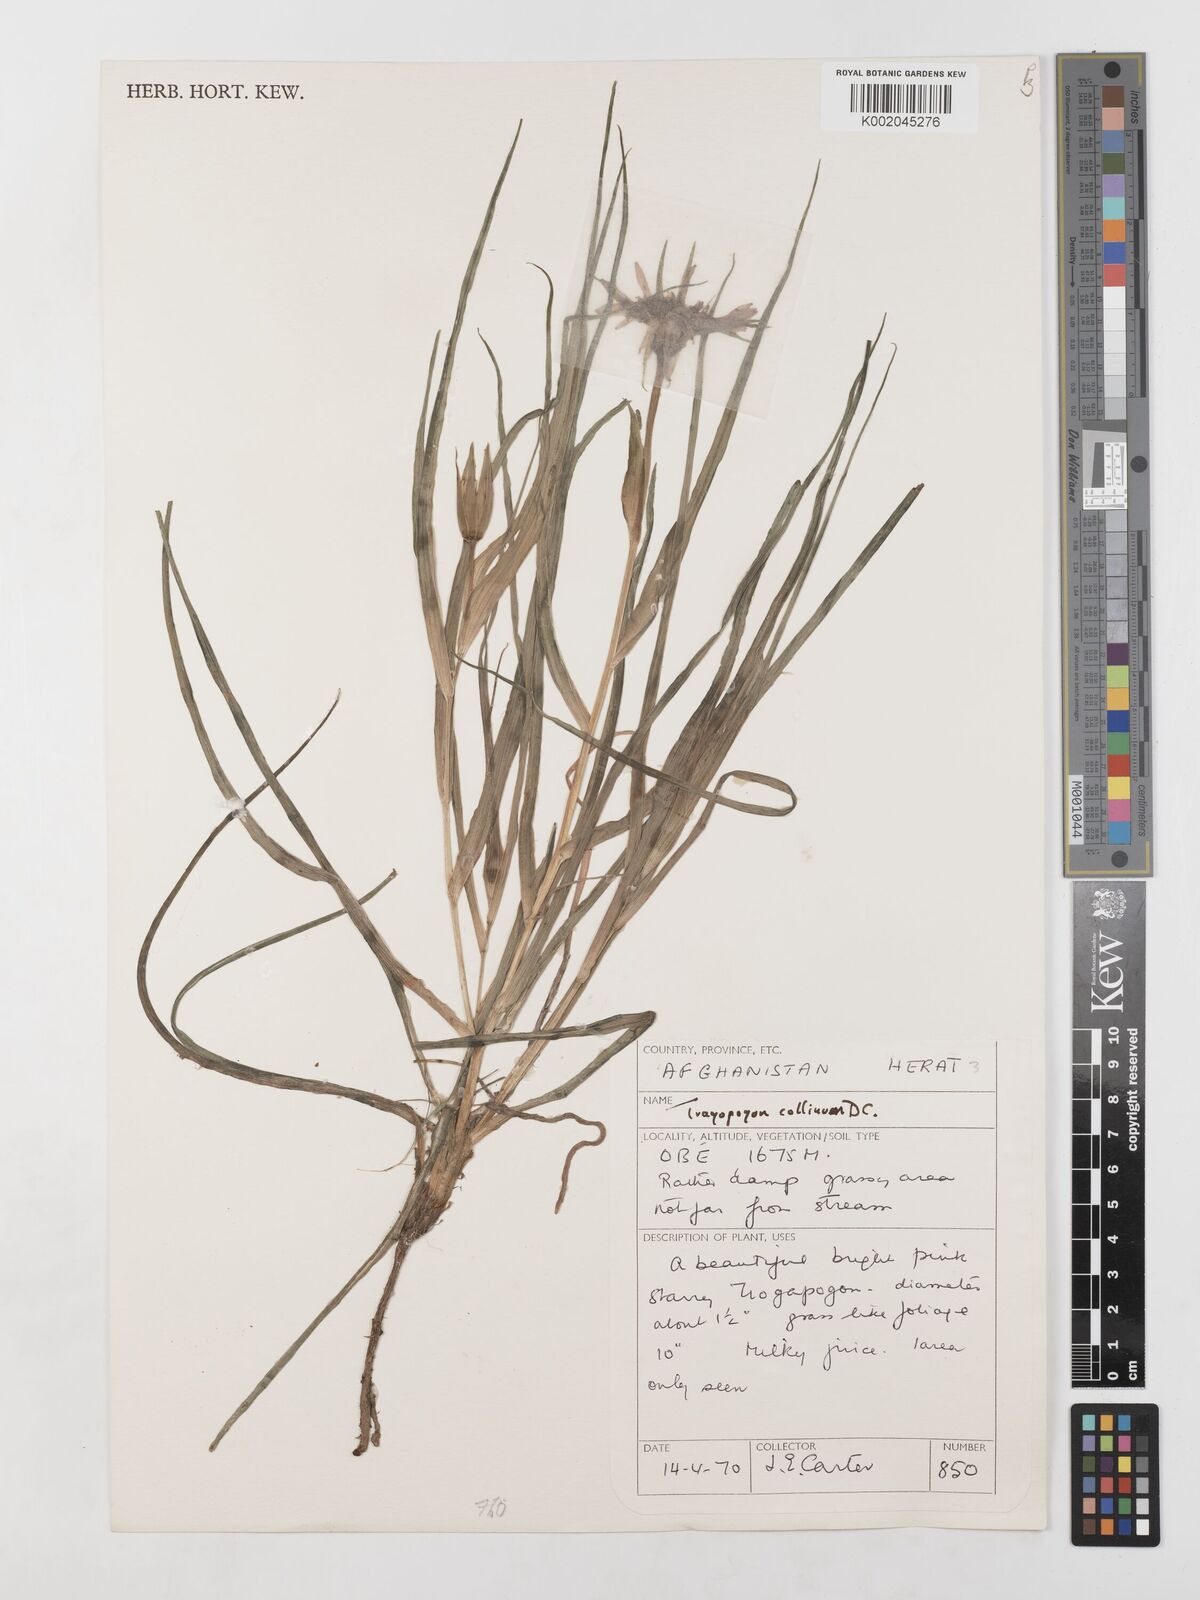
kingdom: Plantae
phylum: Tracheophyta
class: Magnoliopsida
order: Asterales
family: Asteraceae
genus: Tragopogon
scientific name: Tragopogon collinus
